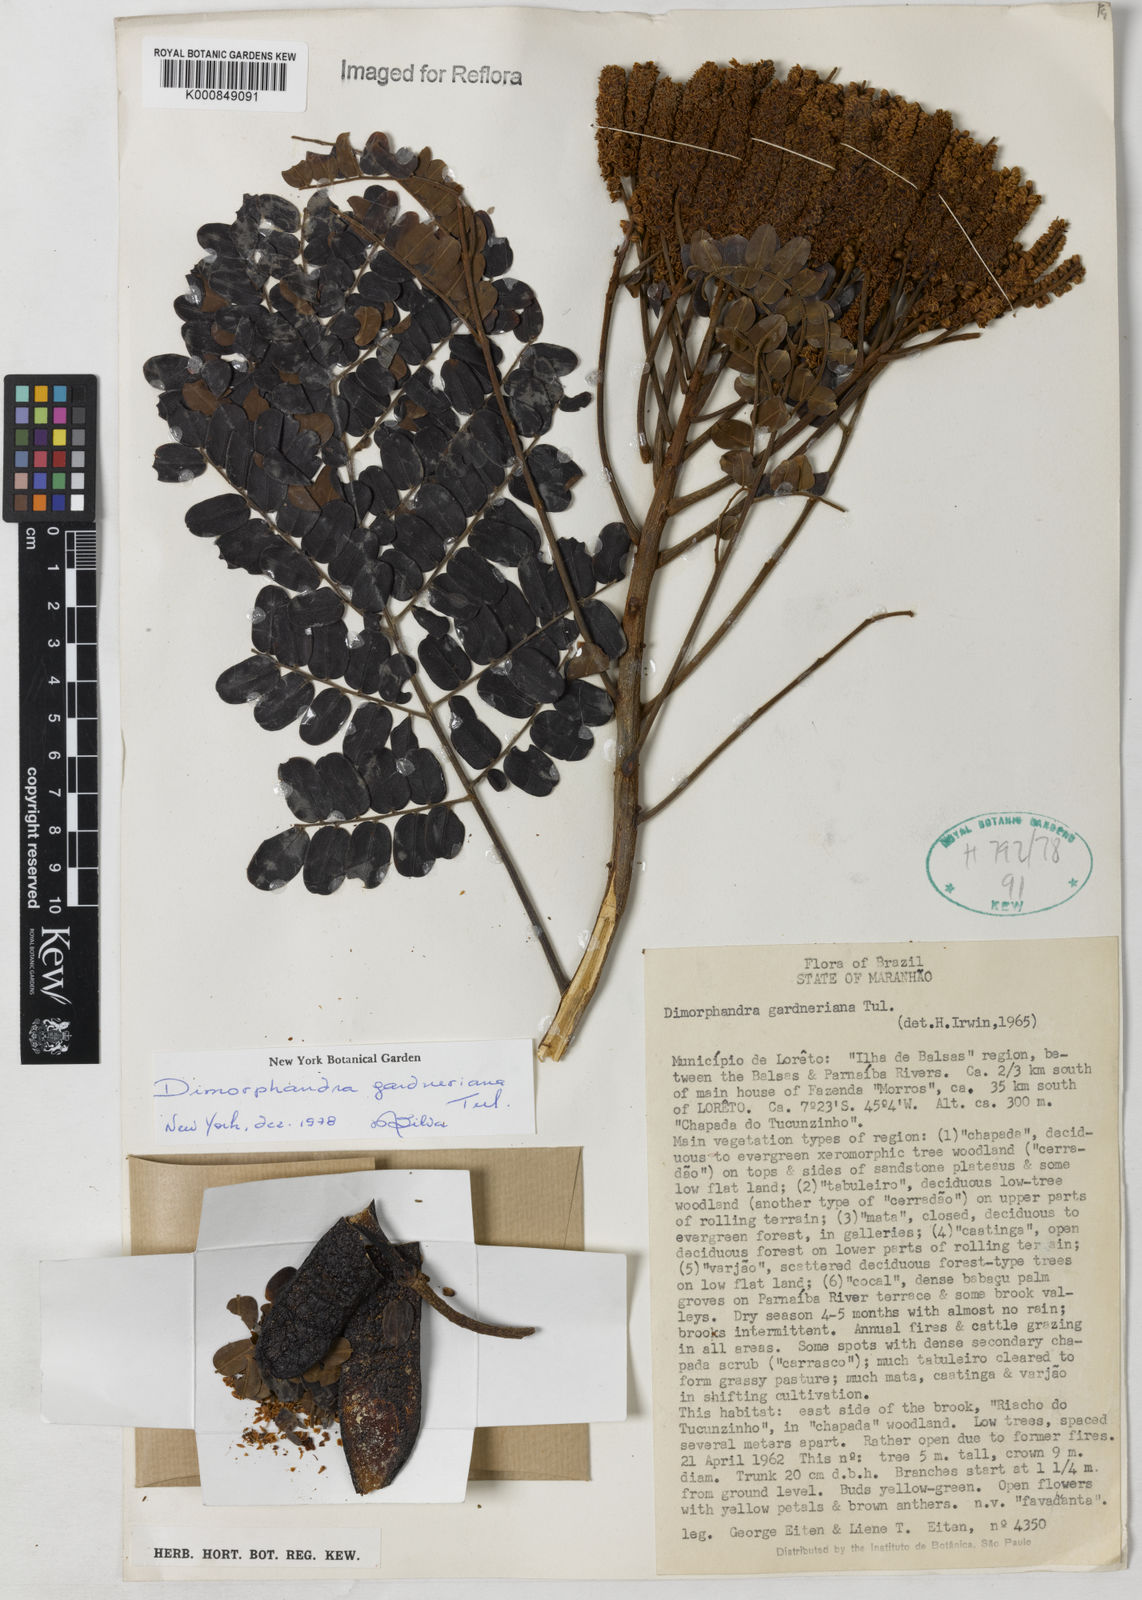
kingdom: Plantae
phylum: Tracheophyta
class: Magnoliopsida
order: Fabales
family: Fabaceae
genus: Dimorphandra
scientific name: Dimorphandra gardneriana
